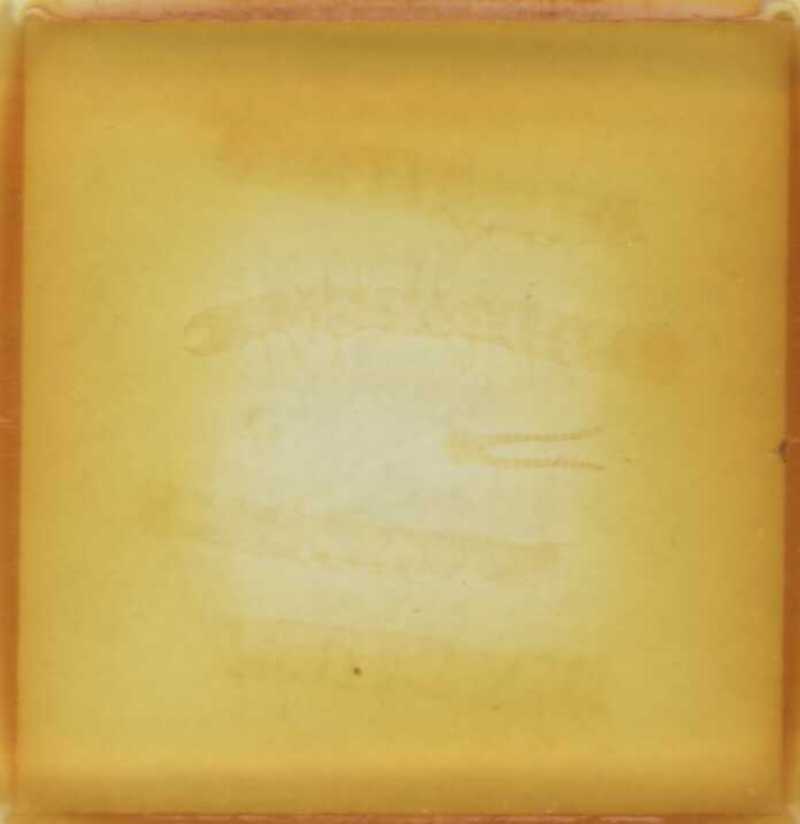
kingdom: Animalia
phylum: Arthropoda
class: Chilopoda
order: Geophilomorpha
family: Geophilidae
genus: Geophilus
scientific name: Geophilus labrofissus
